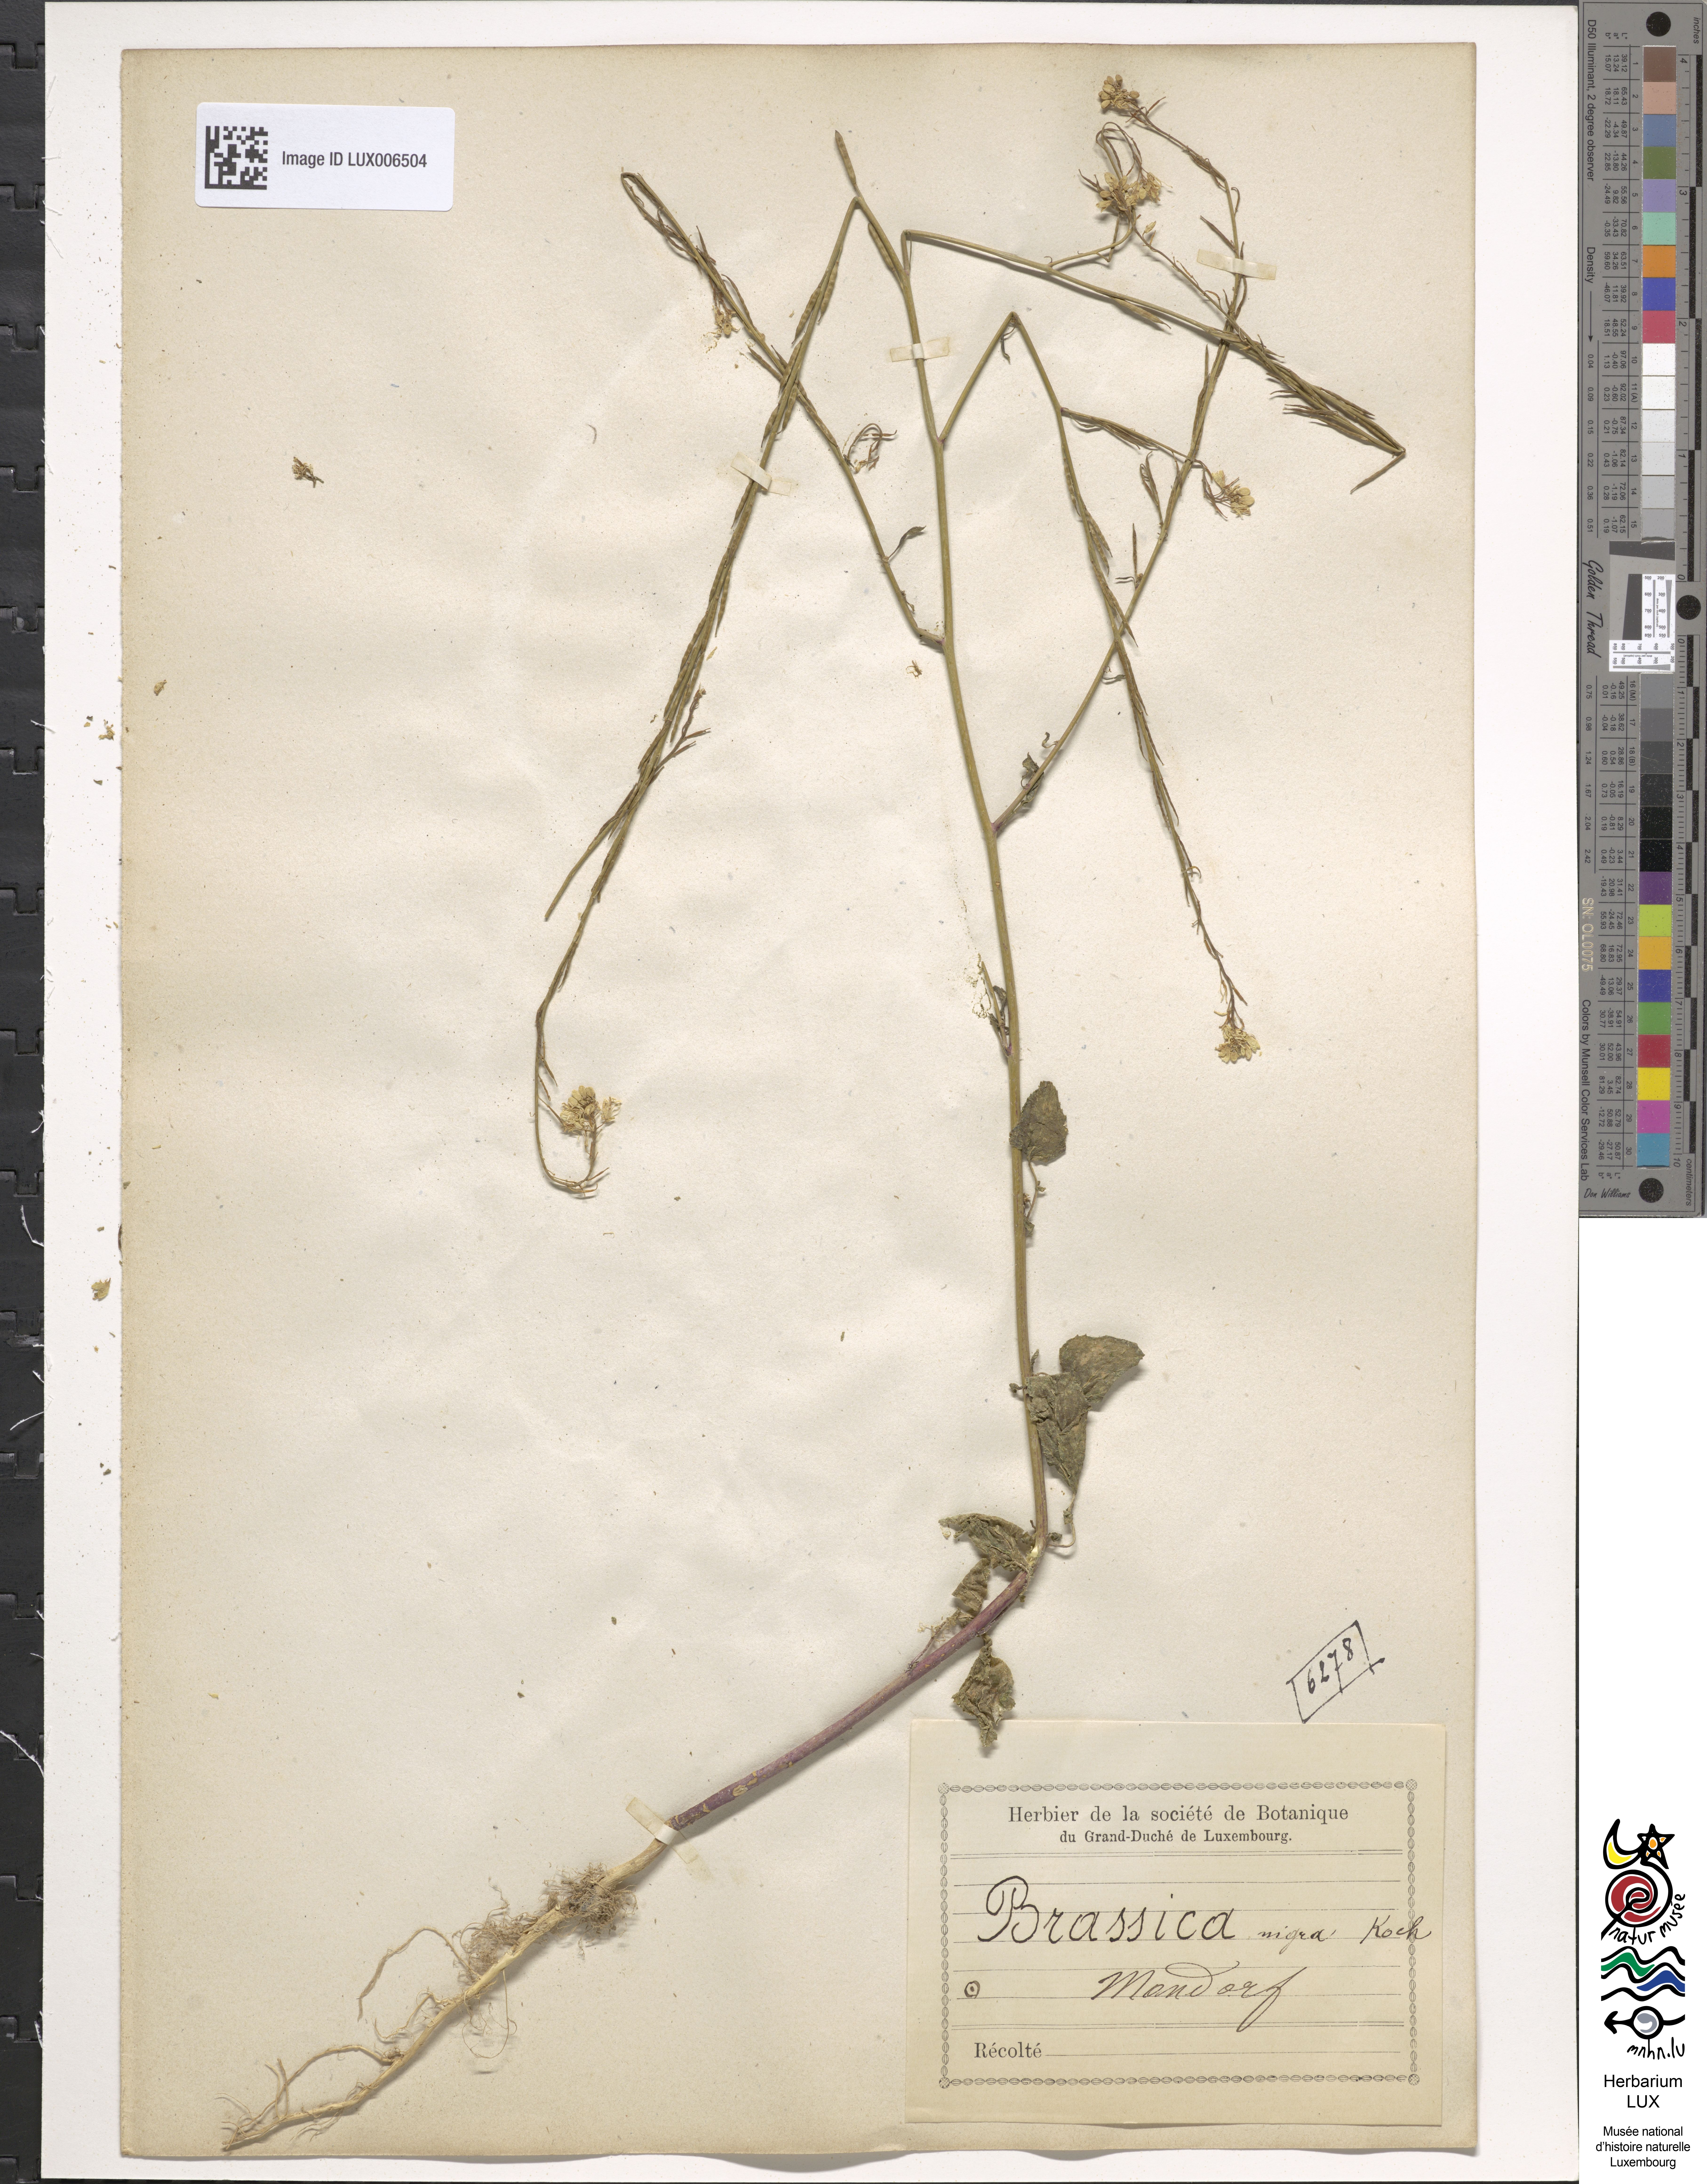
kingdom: Plantae
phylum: Tracheophyta
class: Magnoliopsida
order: Brassicales
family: Brassicaceae
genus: Brassica
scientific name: Brassica nigra
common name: Black mustard
